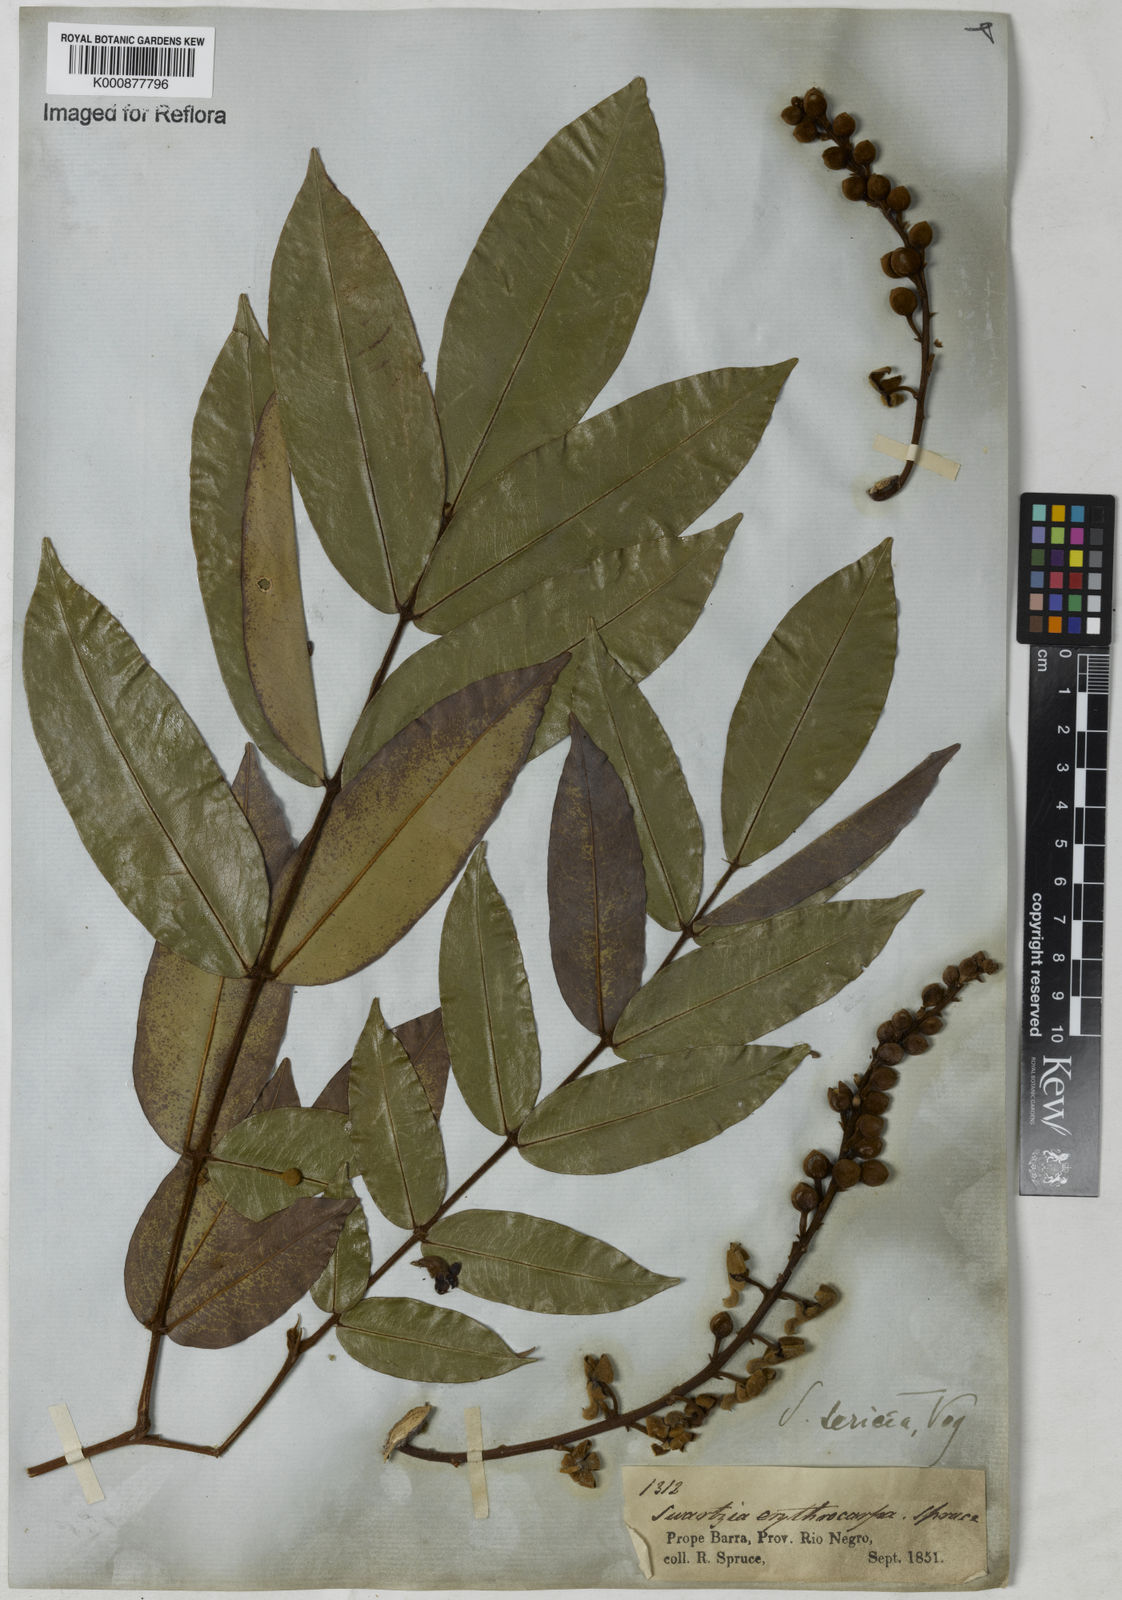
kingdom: Plantae
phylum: Tracheophyta
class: Magnoliopsida
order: Fabales
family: Fabaceae
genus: Swartzia
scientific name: Swartzia sericea
